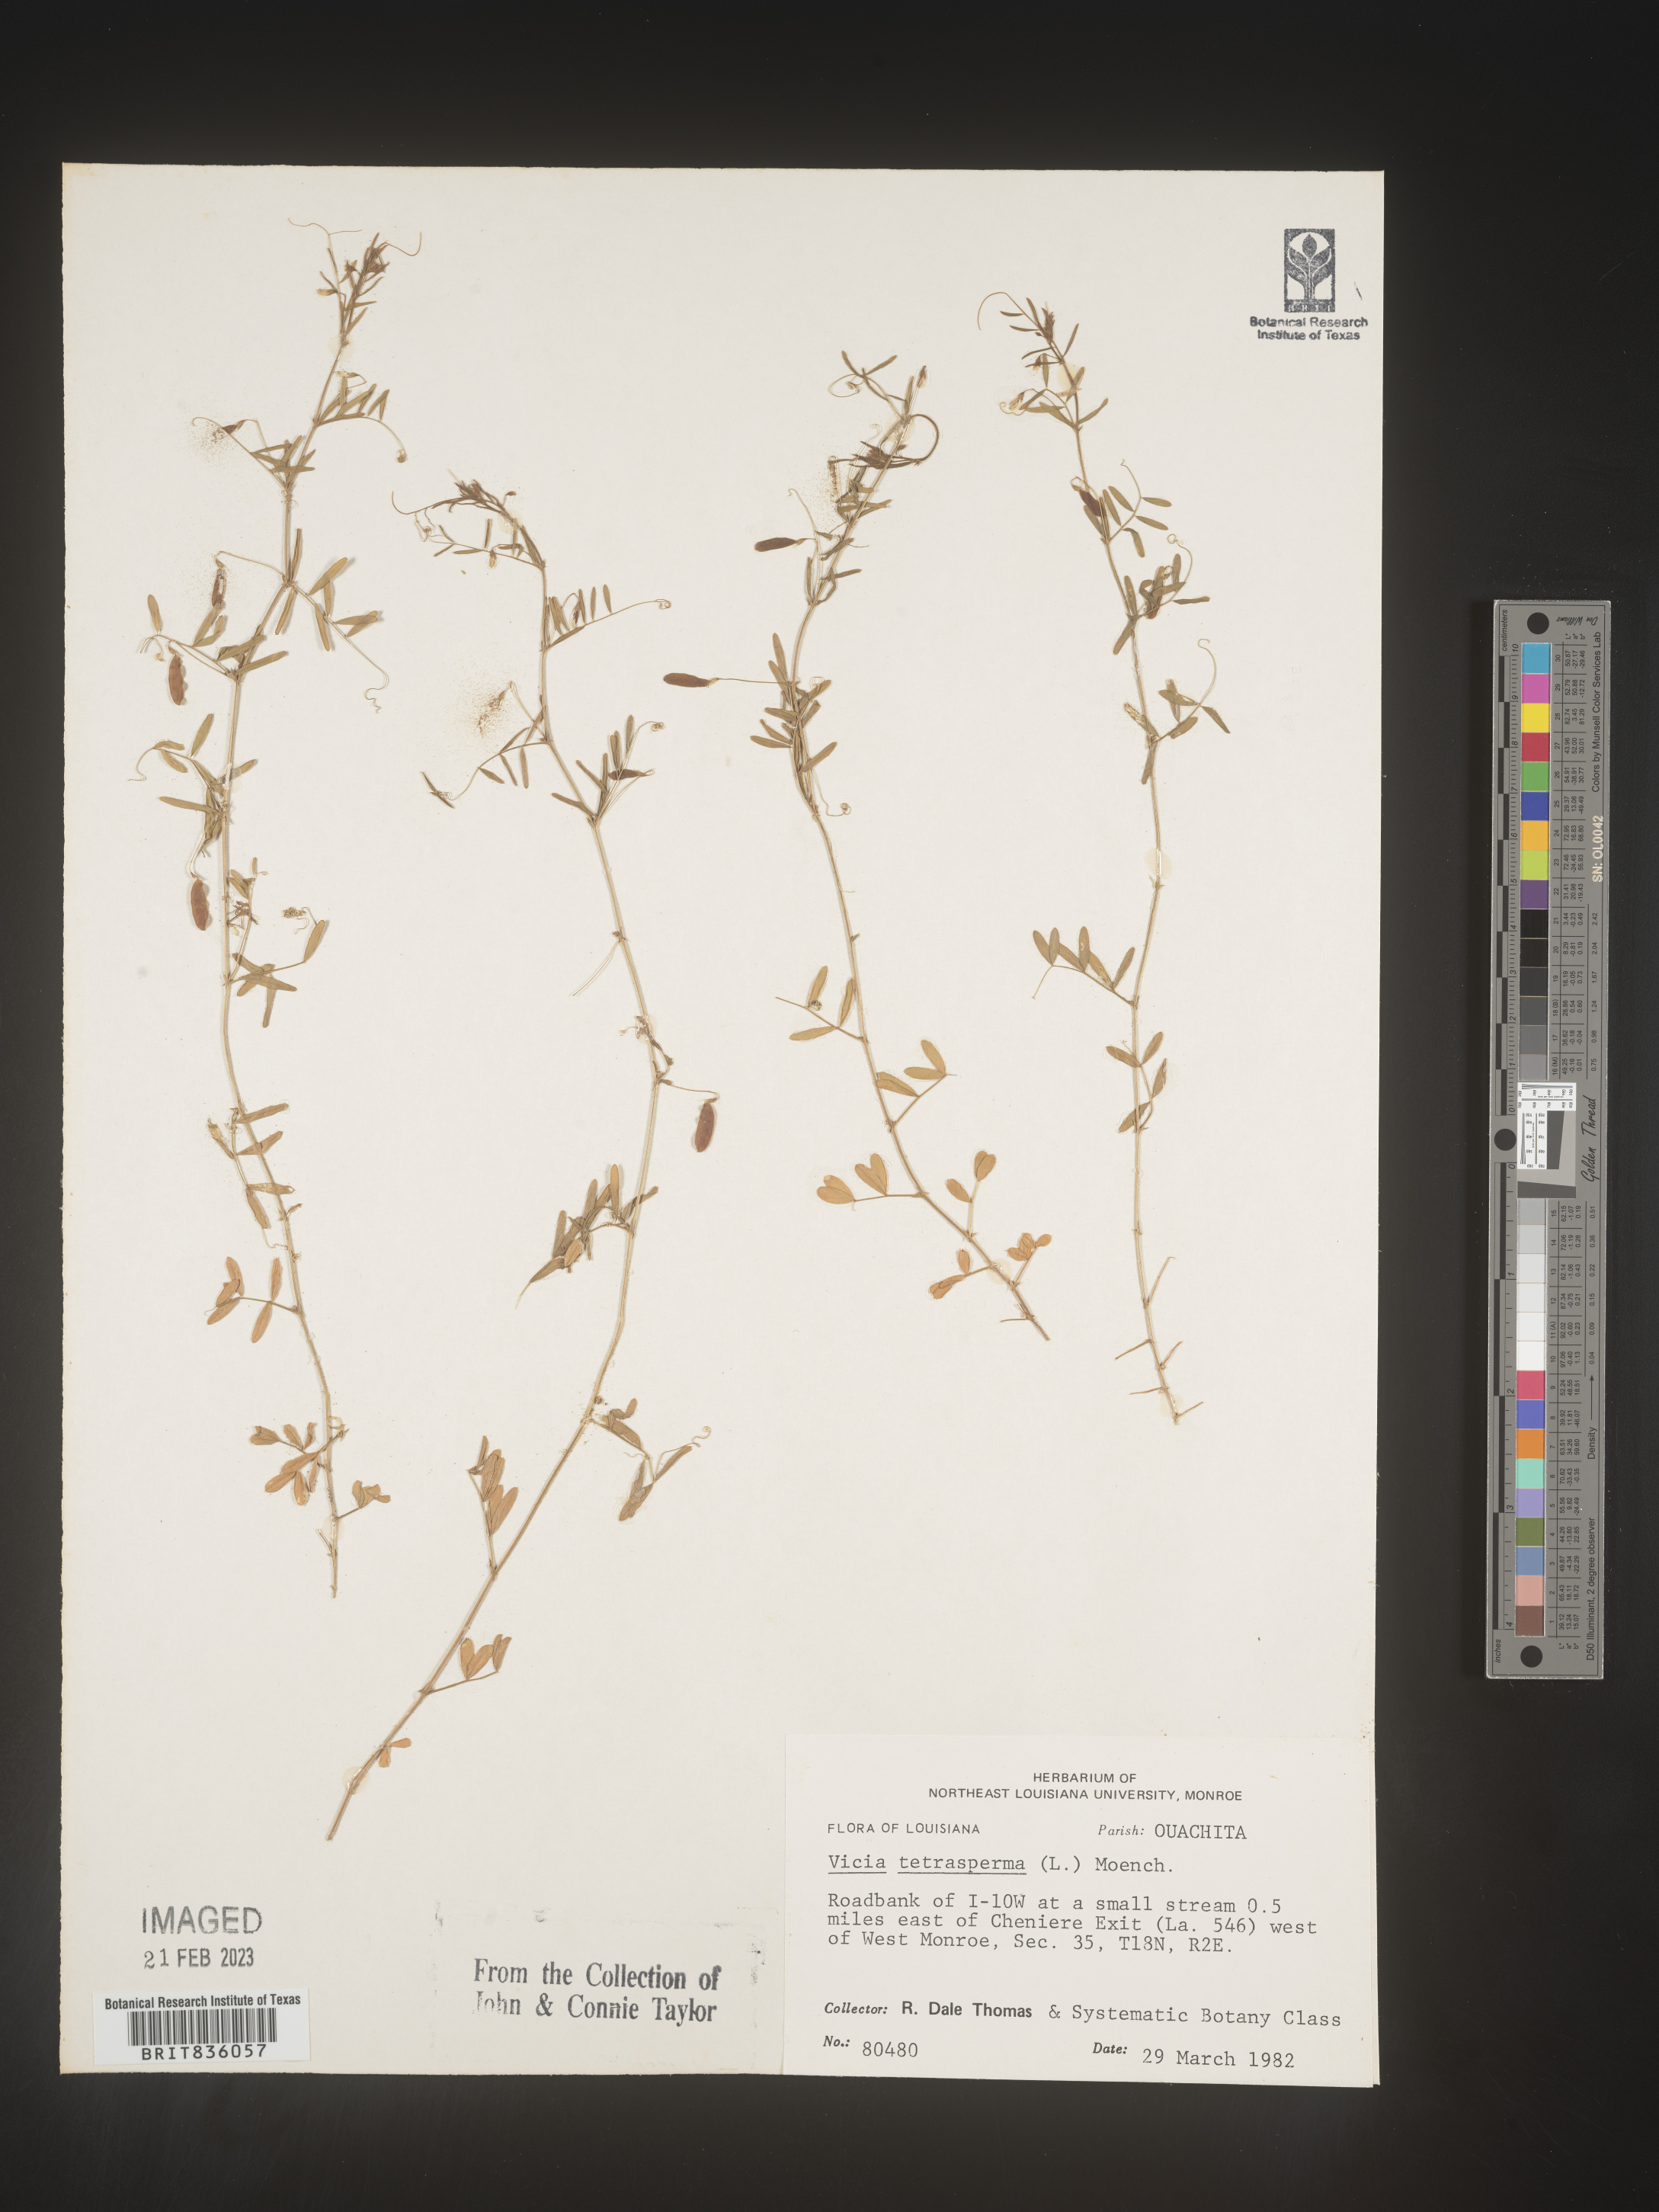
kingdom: Plantae
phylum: Tracheophyta
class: Magnoliopsida
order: Fabales
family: Fabaceae
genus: Vicia
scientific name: Vicia tetrasperma
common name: Smooth tare
